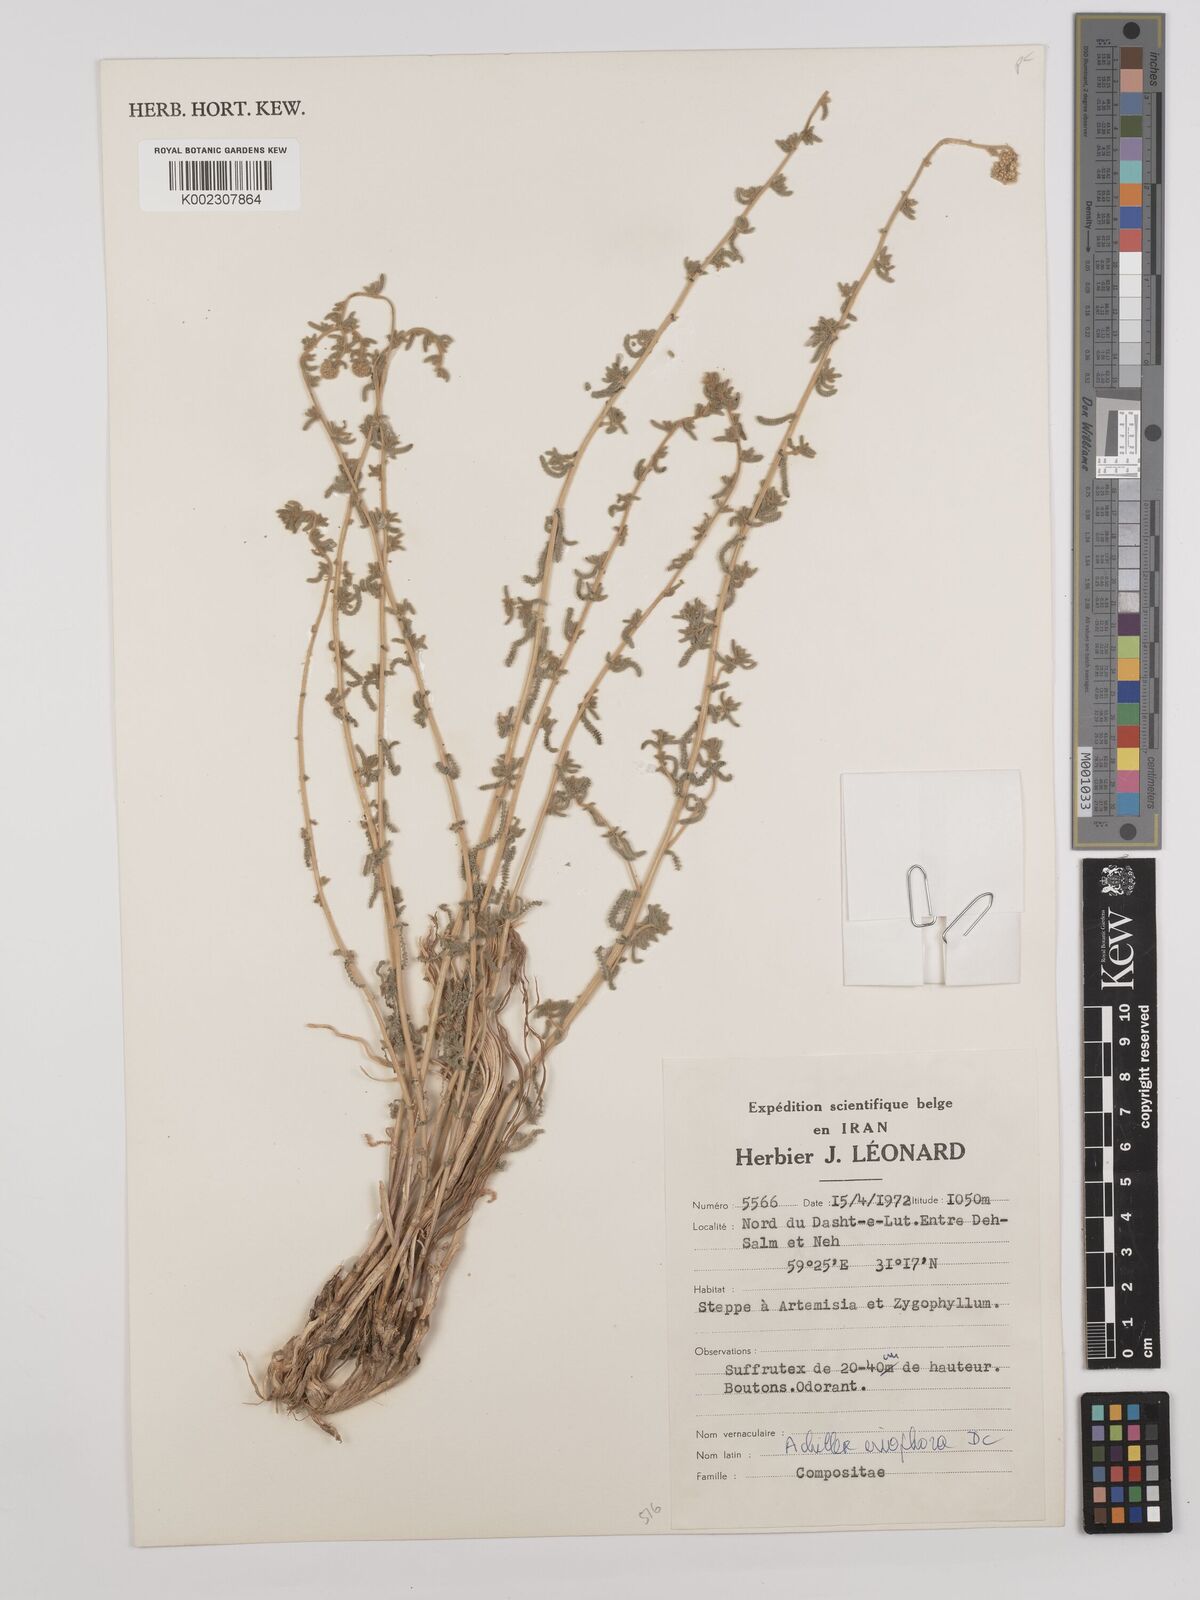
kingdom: Plantae
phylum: Tracheophyta
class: Magnoliopsida
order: Asterales
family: Asteraceae
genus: Achillea
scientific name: Achillea wilhelmsii
